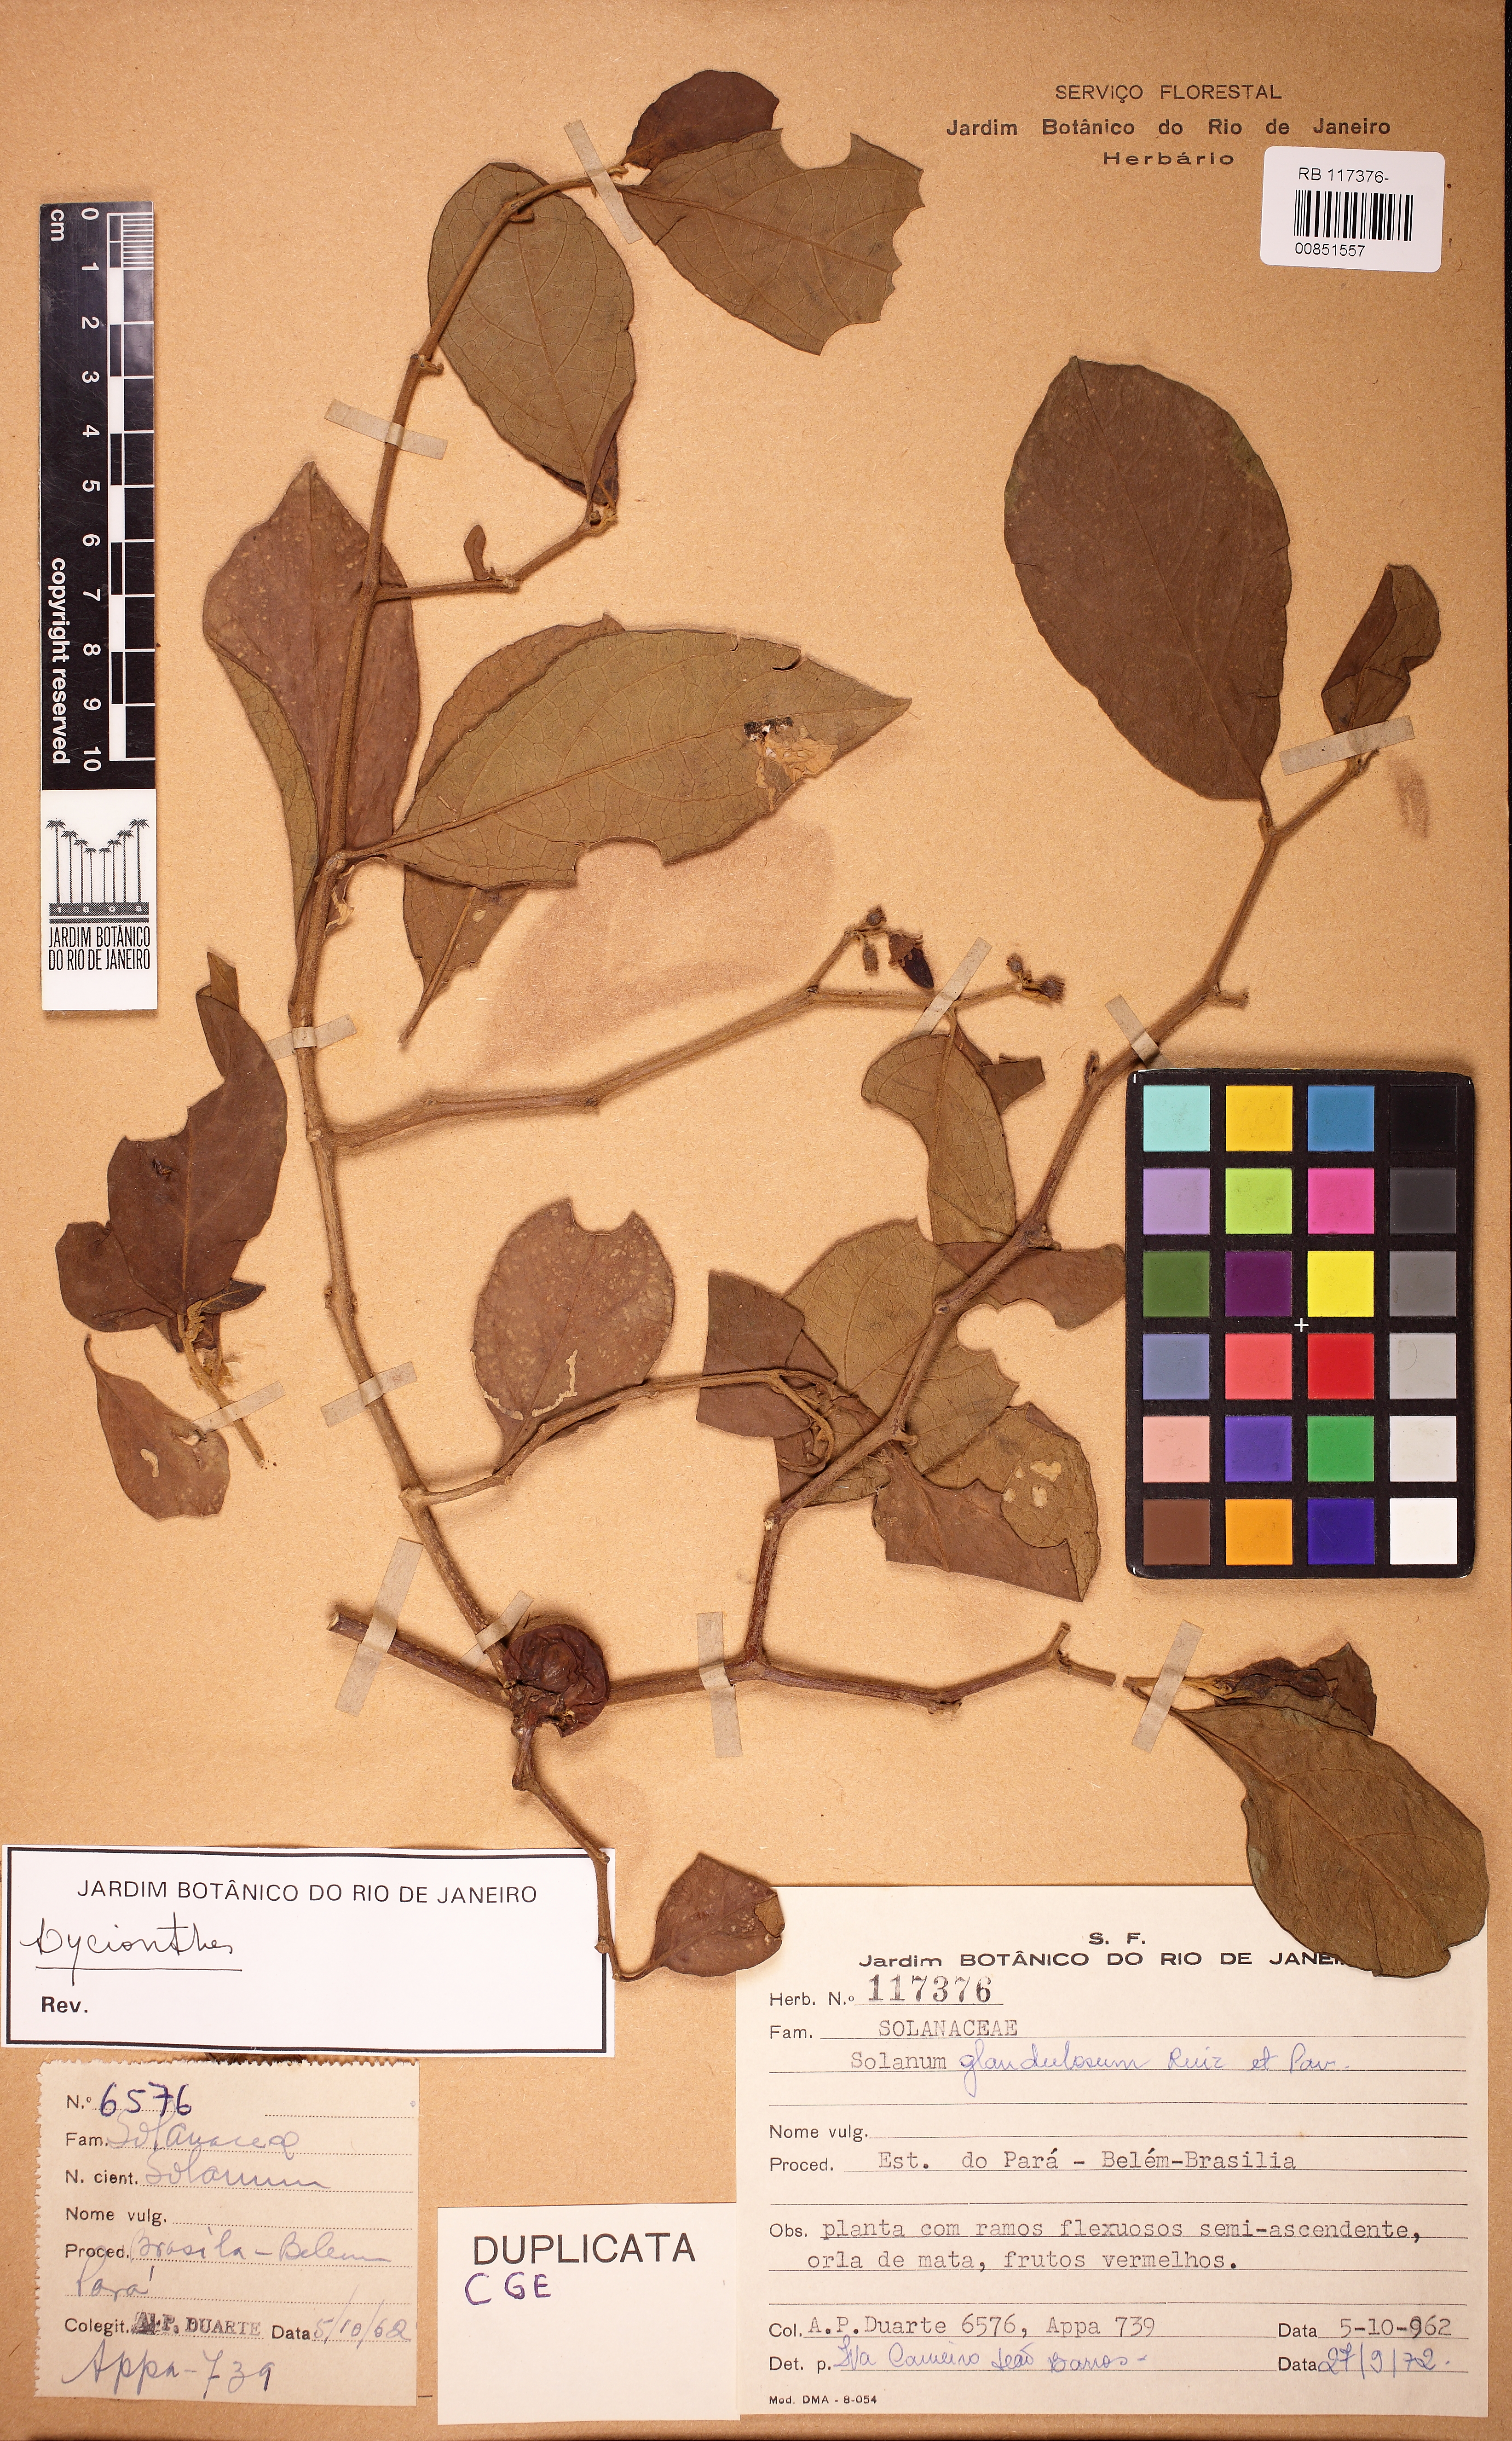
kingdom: Plantae
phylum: Tracheophyta
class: Magnoliopsida
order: Solanales
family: Solanaceae
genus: Lycianthes
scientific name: Lycianthes glandulosa
